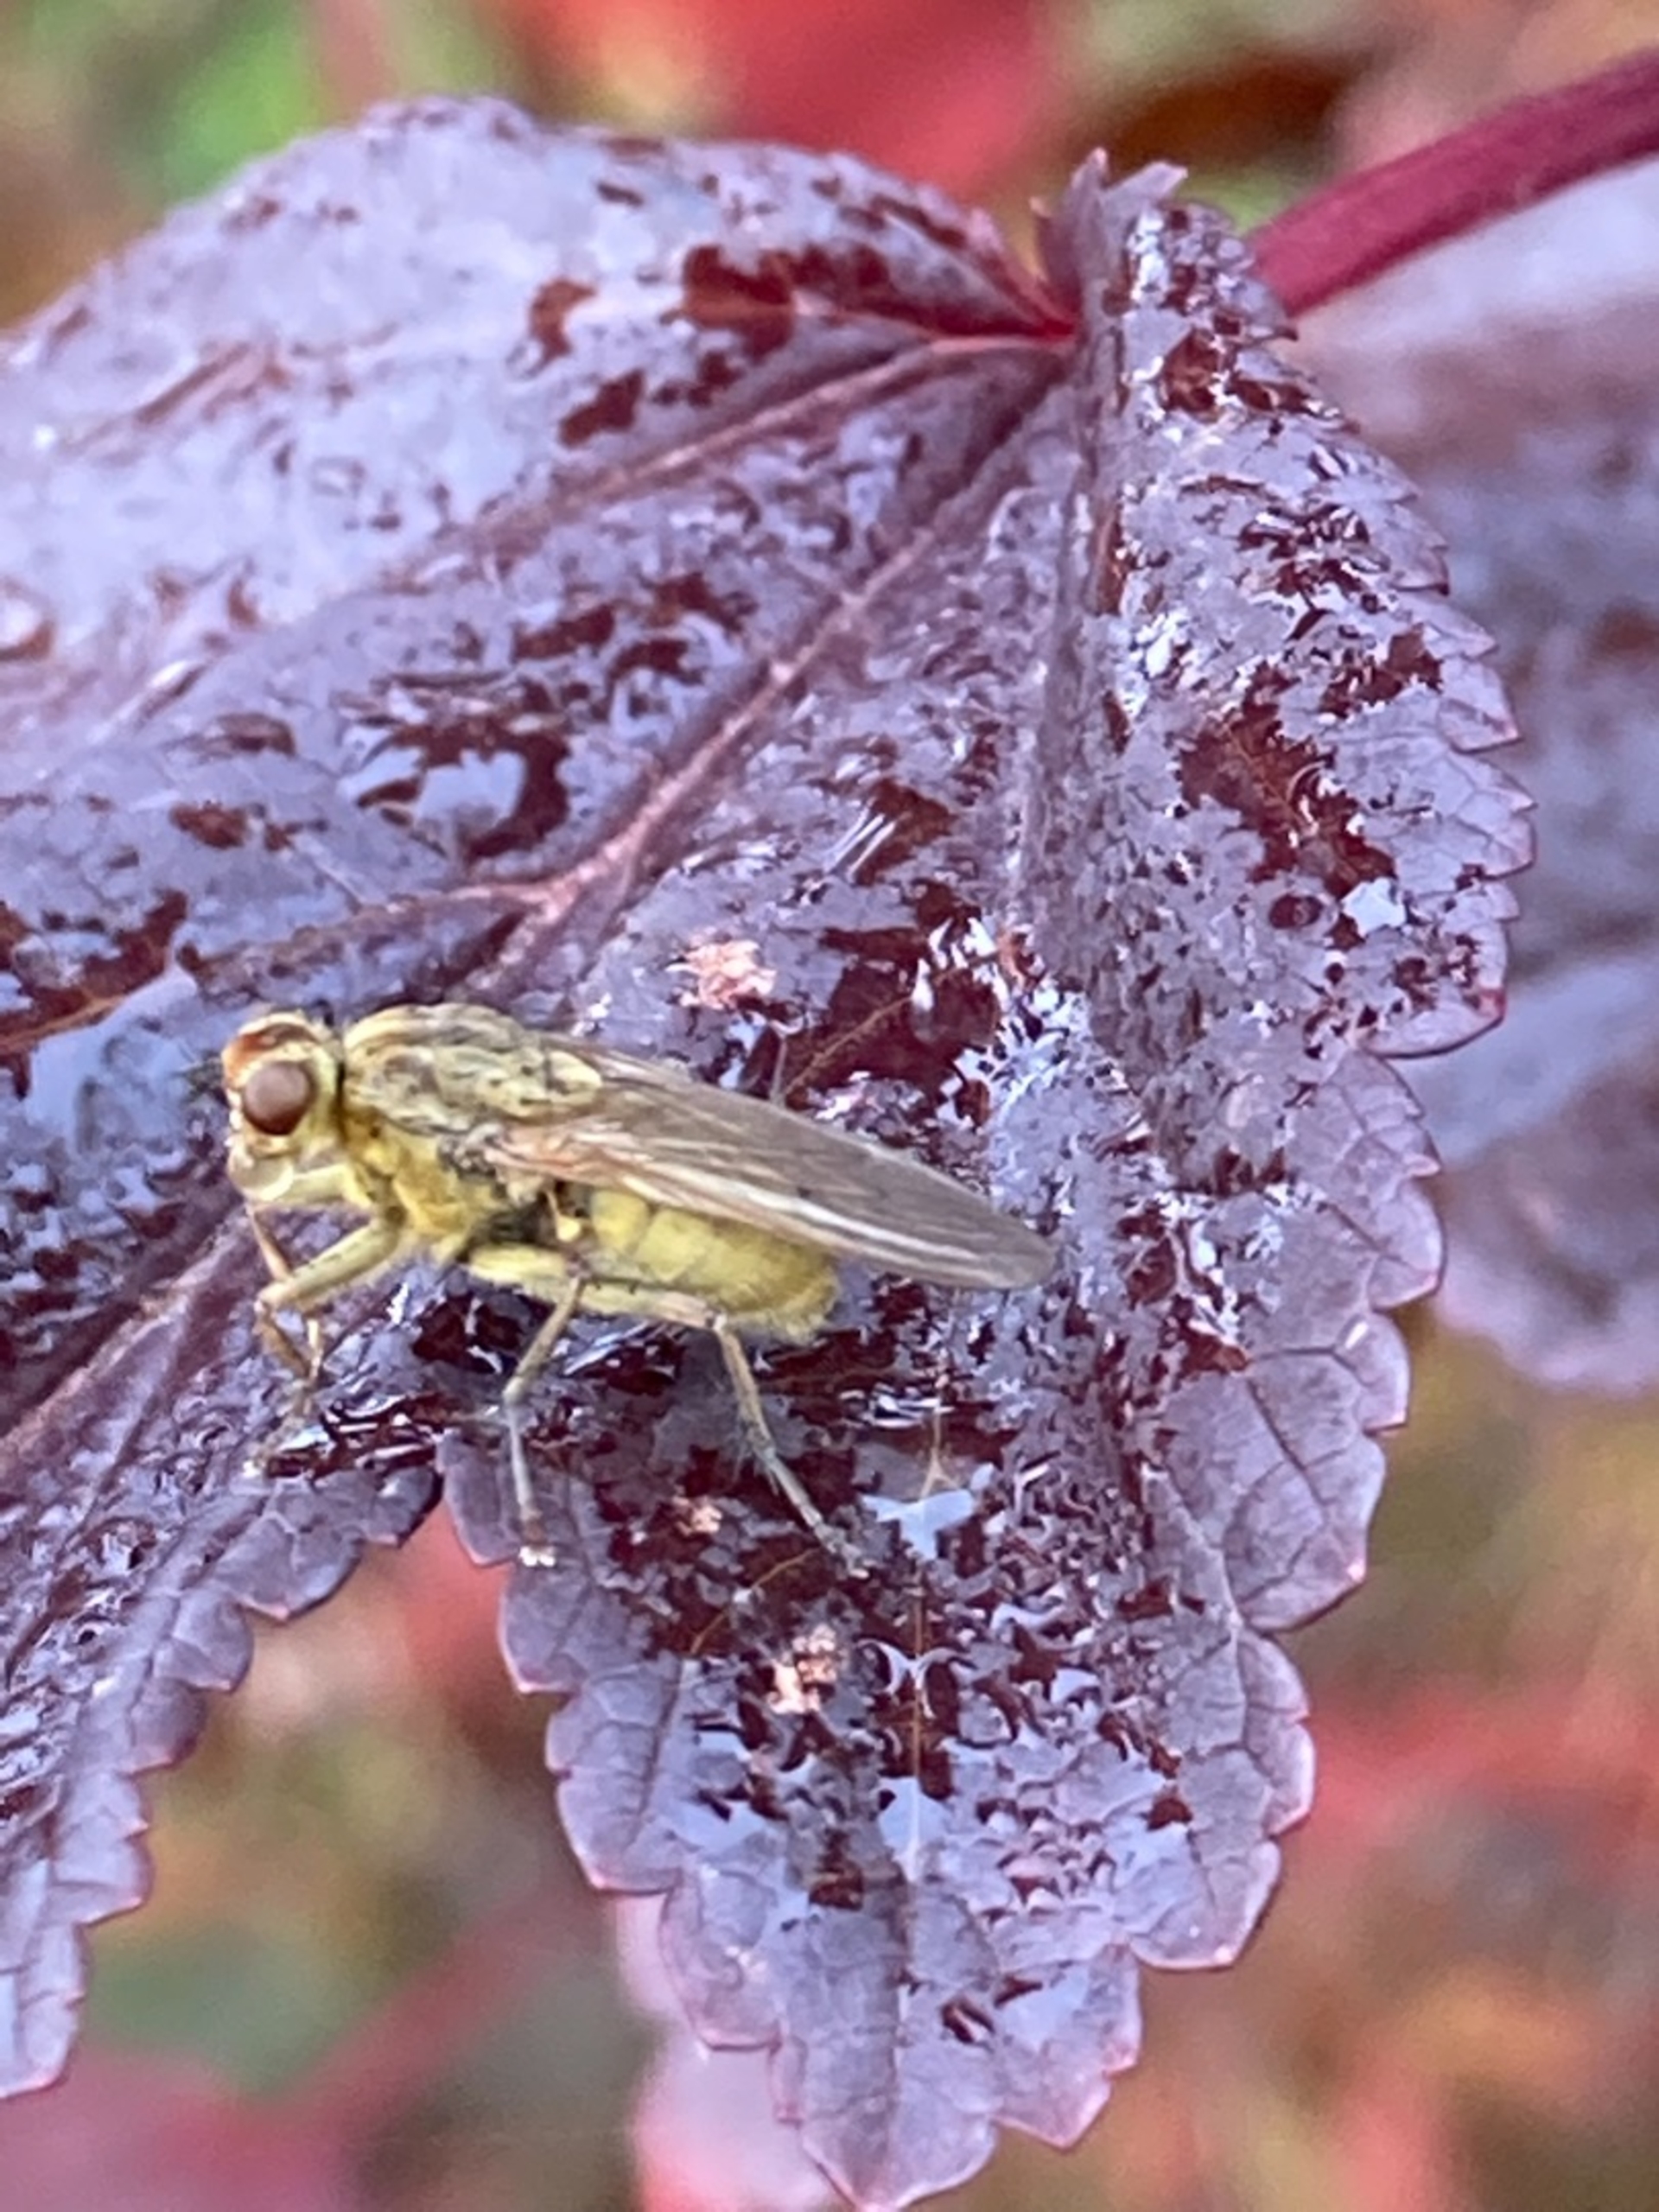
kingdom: Animalia
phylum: Arthropoda
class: Insecta
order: Diptera
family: Scathophagidae
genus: Scathophaga
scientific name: Scathophaga stercoraria
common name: Almindelig gødningsflue
